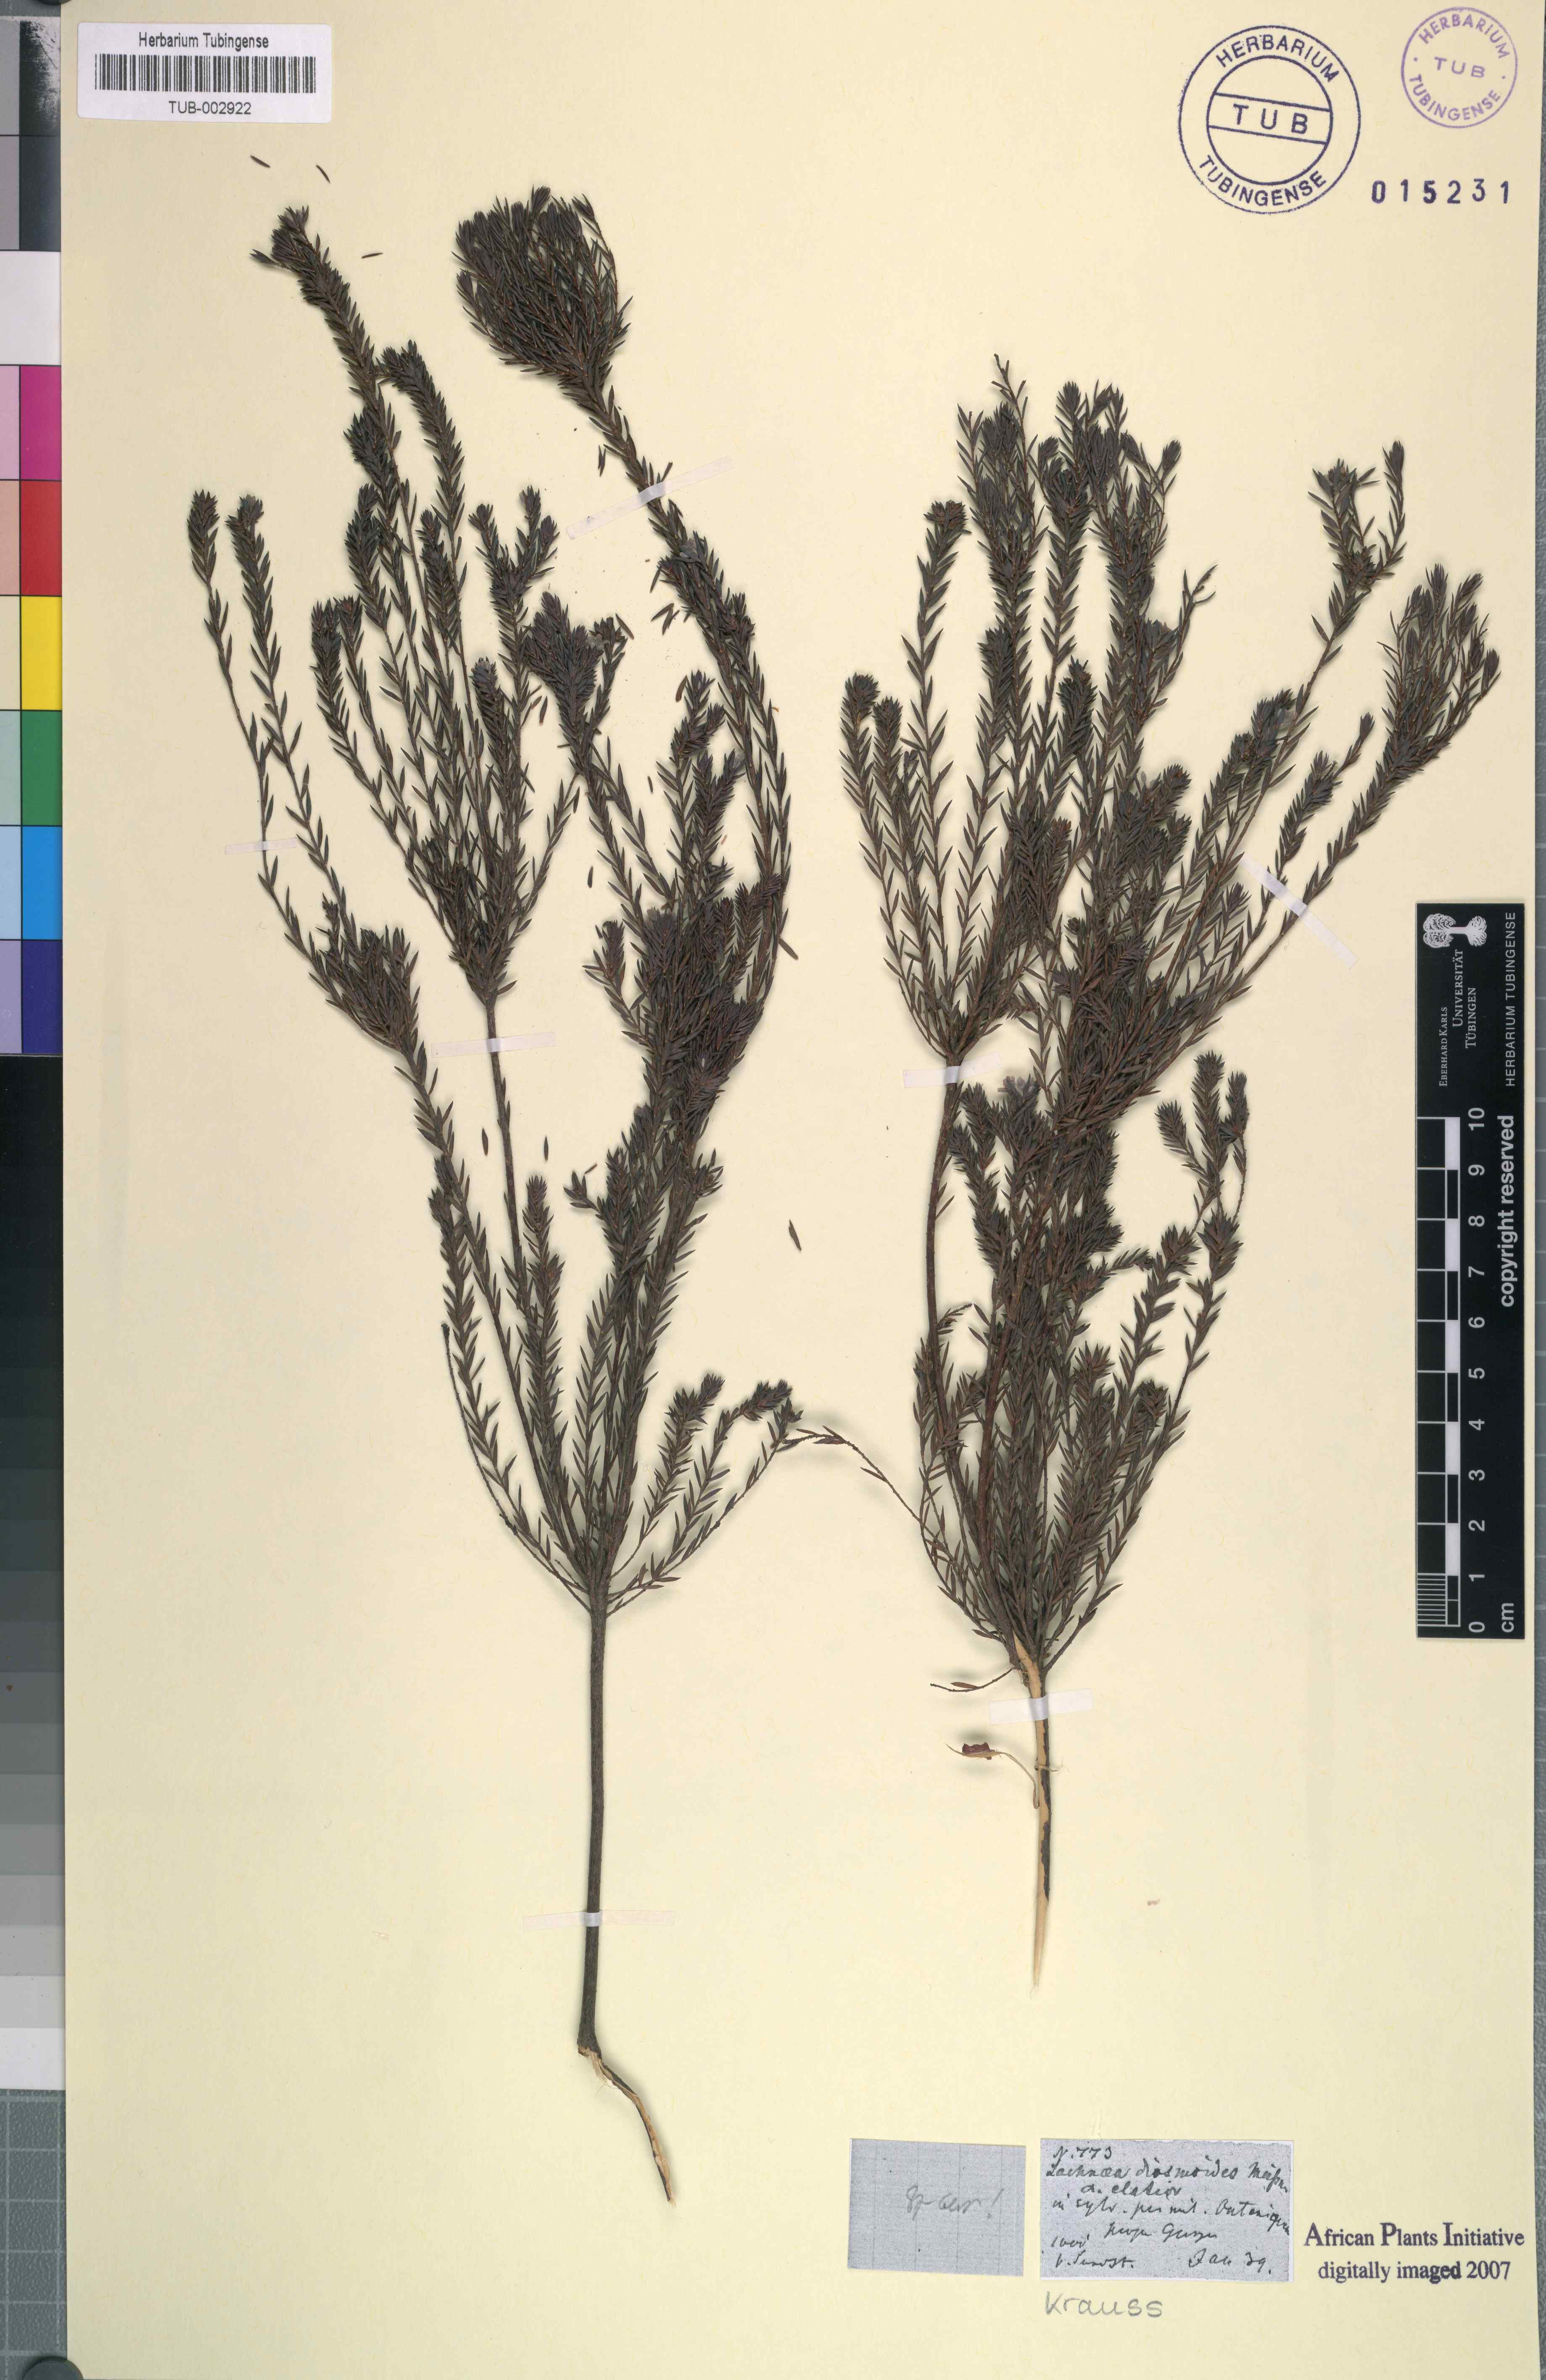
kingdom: Plantae
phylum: Tracheophyta
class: Magnoliopsida
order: Malvales
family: Thymelaeaceae
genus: Lachnaea
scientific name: Lachnaea diosmoides
